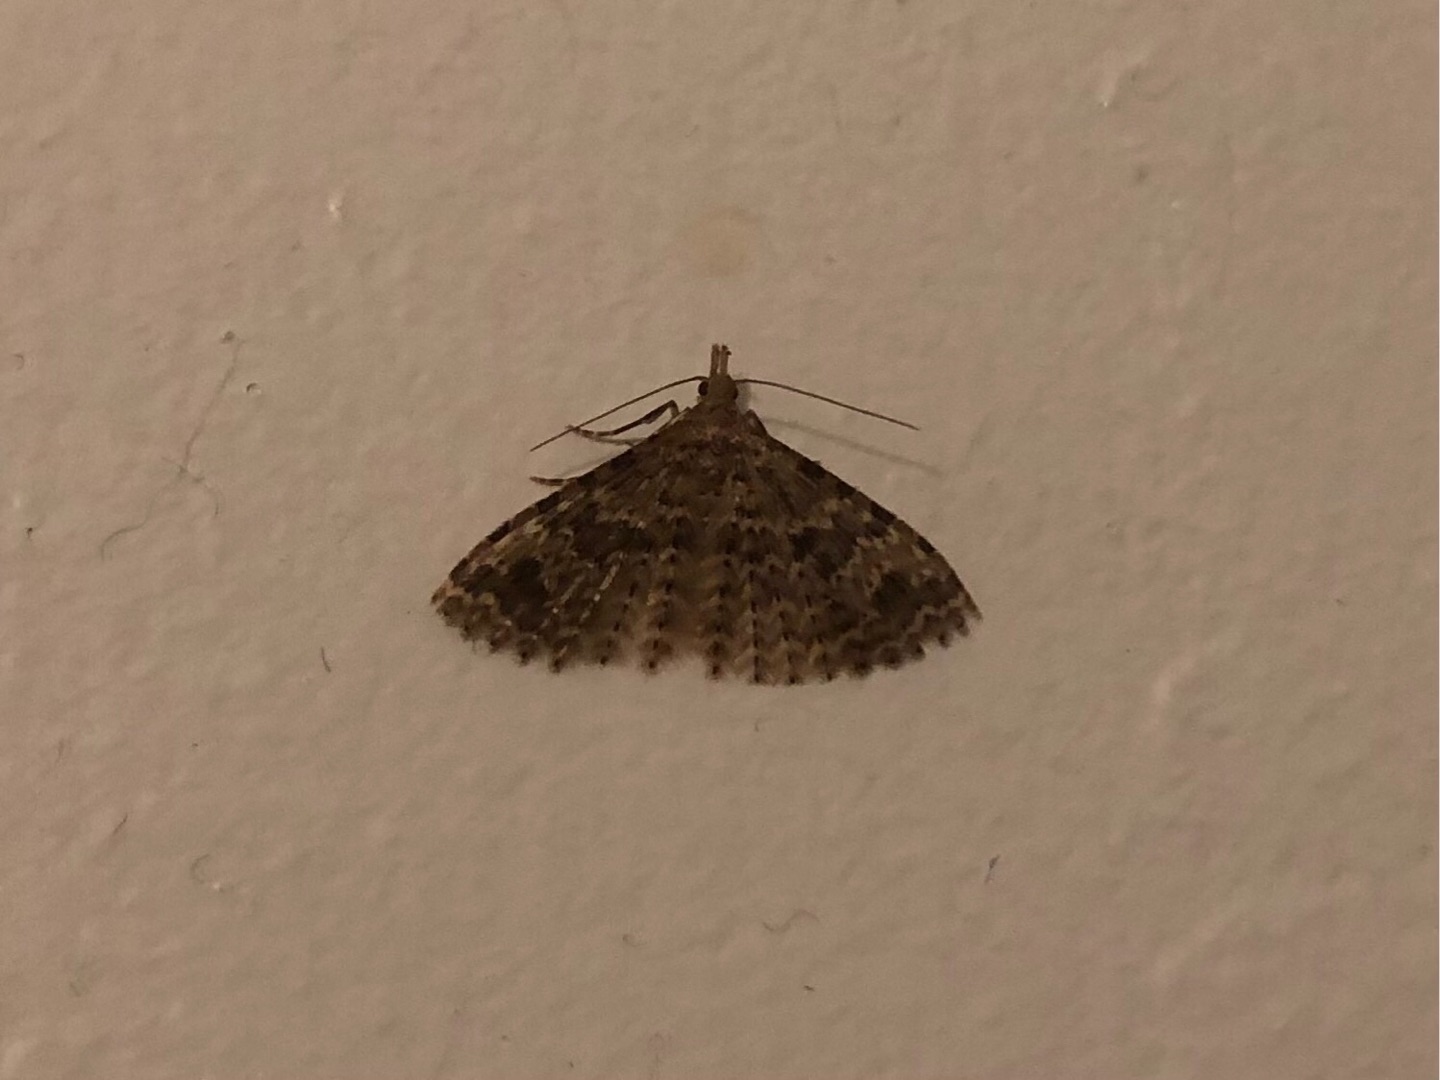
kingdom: Animalia
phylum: Arthropoda
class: Insecta
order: Lepidoptera
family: Alucitidae
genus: Alucita
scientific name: Alucita hexadactyla
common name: Kaprifoliefjermøl
